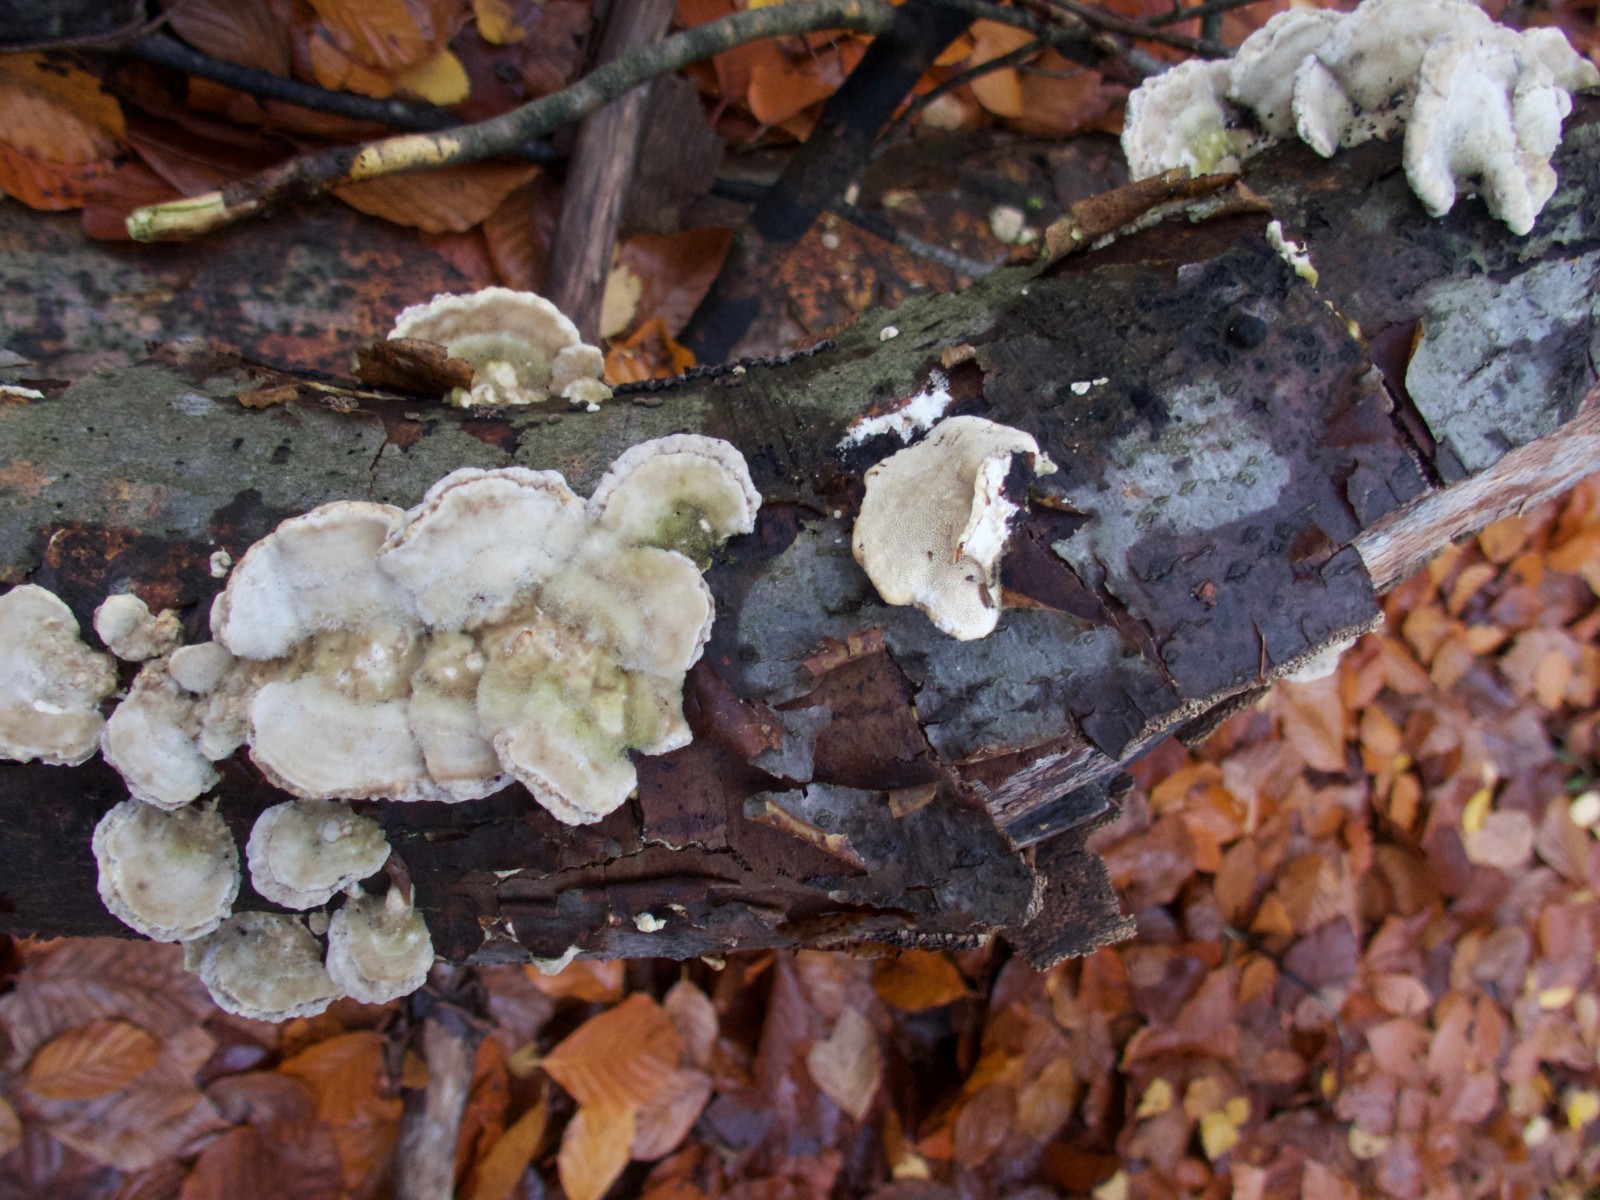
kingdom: Fungi
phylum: Basidiomycota
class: Agaricomycetes
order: Polyporales
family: Polyporaceae
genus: Trametes
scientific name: Trametes hirsuta
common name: håret læderporesvamp
